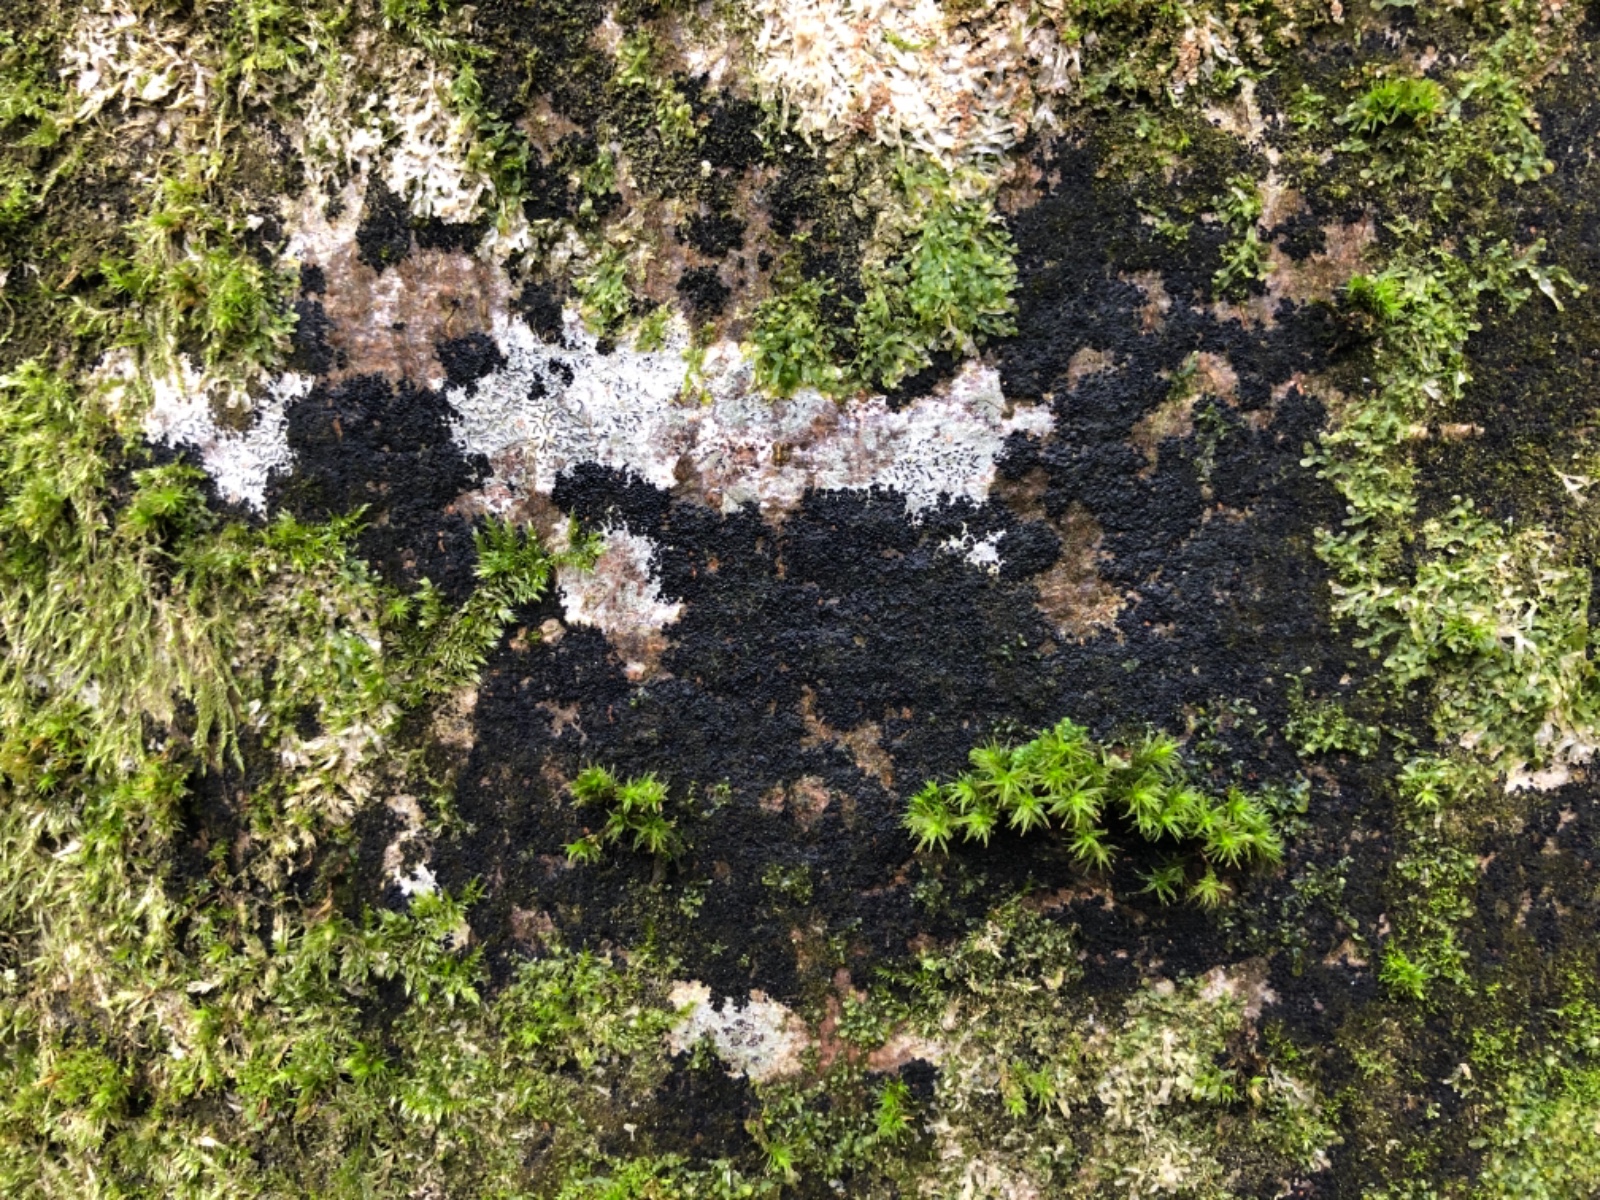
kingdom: Fungi
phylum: Ascomycota
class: Leotiomycetes
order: Rhytismatales
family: Ascodichaenaceae
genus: Ascodichaena
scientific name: Ascodichaena rugosa
